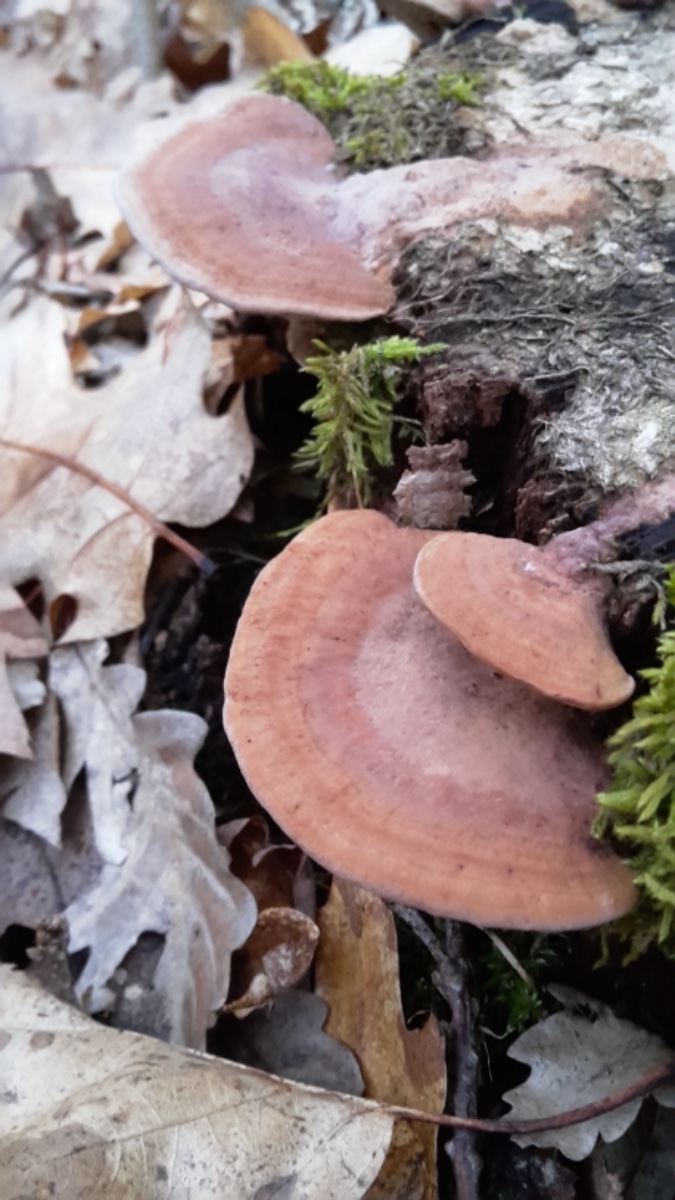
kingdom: Fungi
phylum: Basidiomycota
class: Agaricomycetes
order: Polyporales
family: Fomitopsidaceae
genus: Daedalea
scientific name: Daedalea quercina
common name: ege-labyrintsvamp
